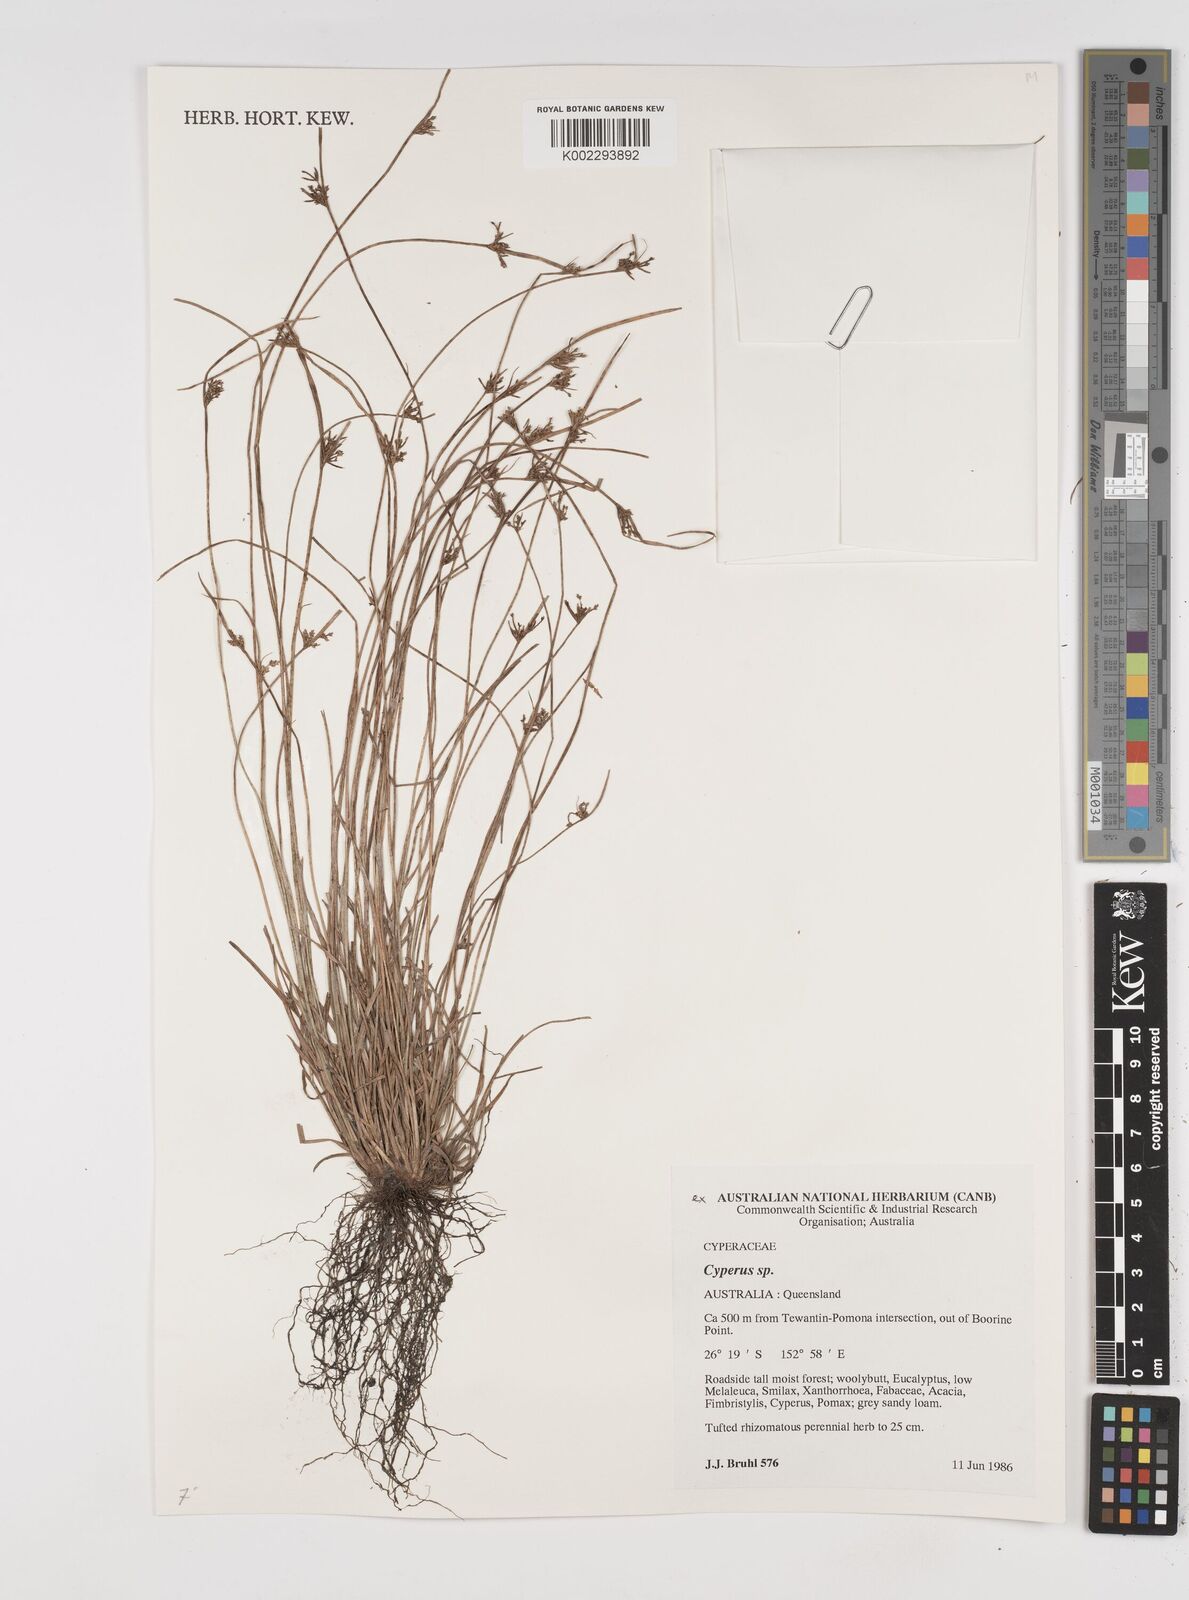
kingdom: Plantae
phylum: Tracheophyta
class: Liliopsida
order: Poales
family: Cyperaceae
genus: Cyperus
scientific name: Cyperus
